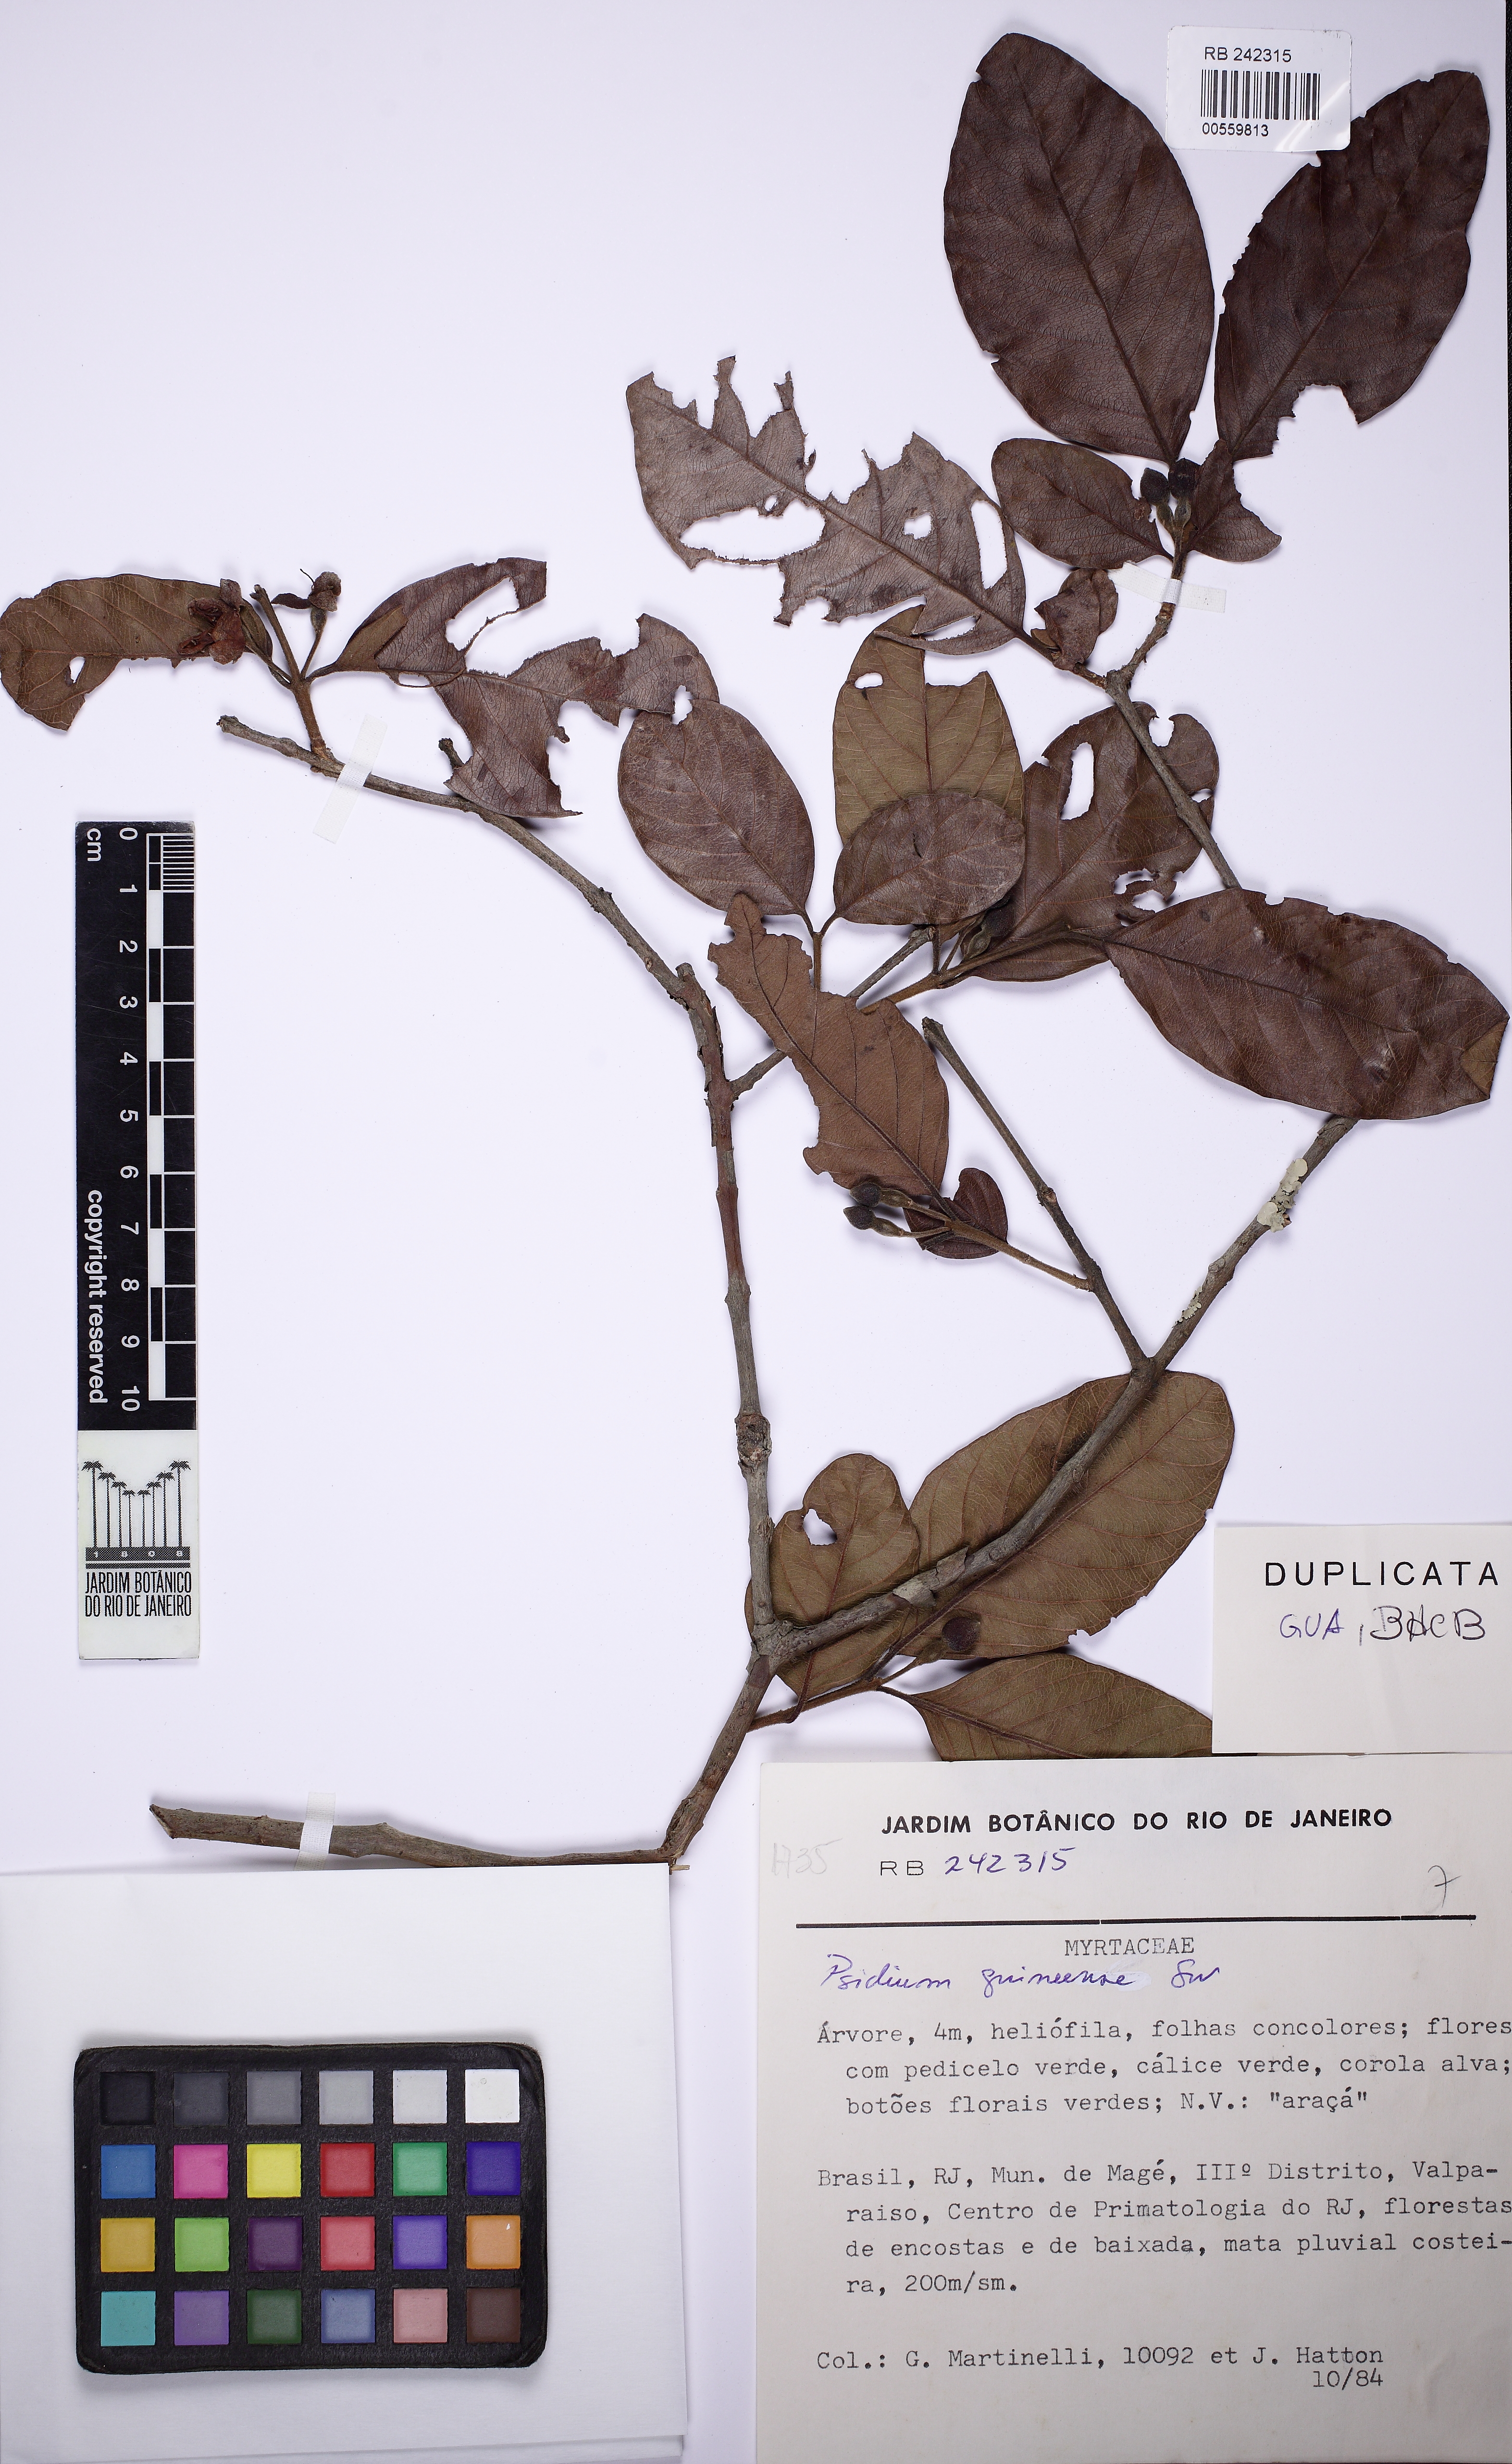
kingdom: Plantae
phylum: Tracheophyta
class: Magnoliopsida
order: Myrtales
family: Myrtaceae
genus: Psidium
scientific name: Psidium guineense
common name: Brazilian guava
